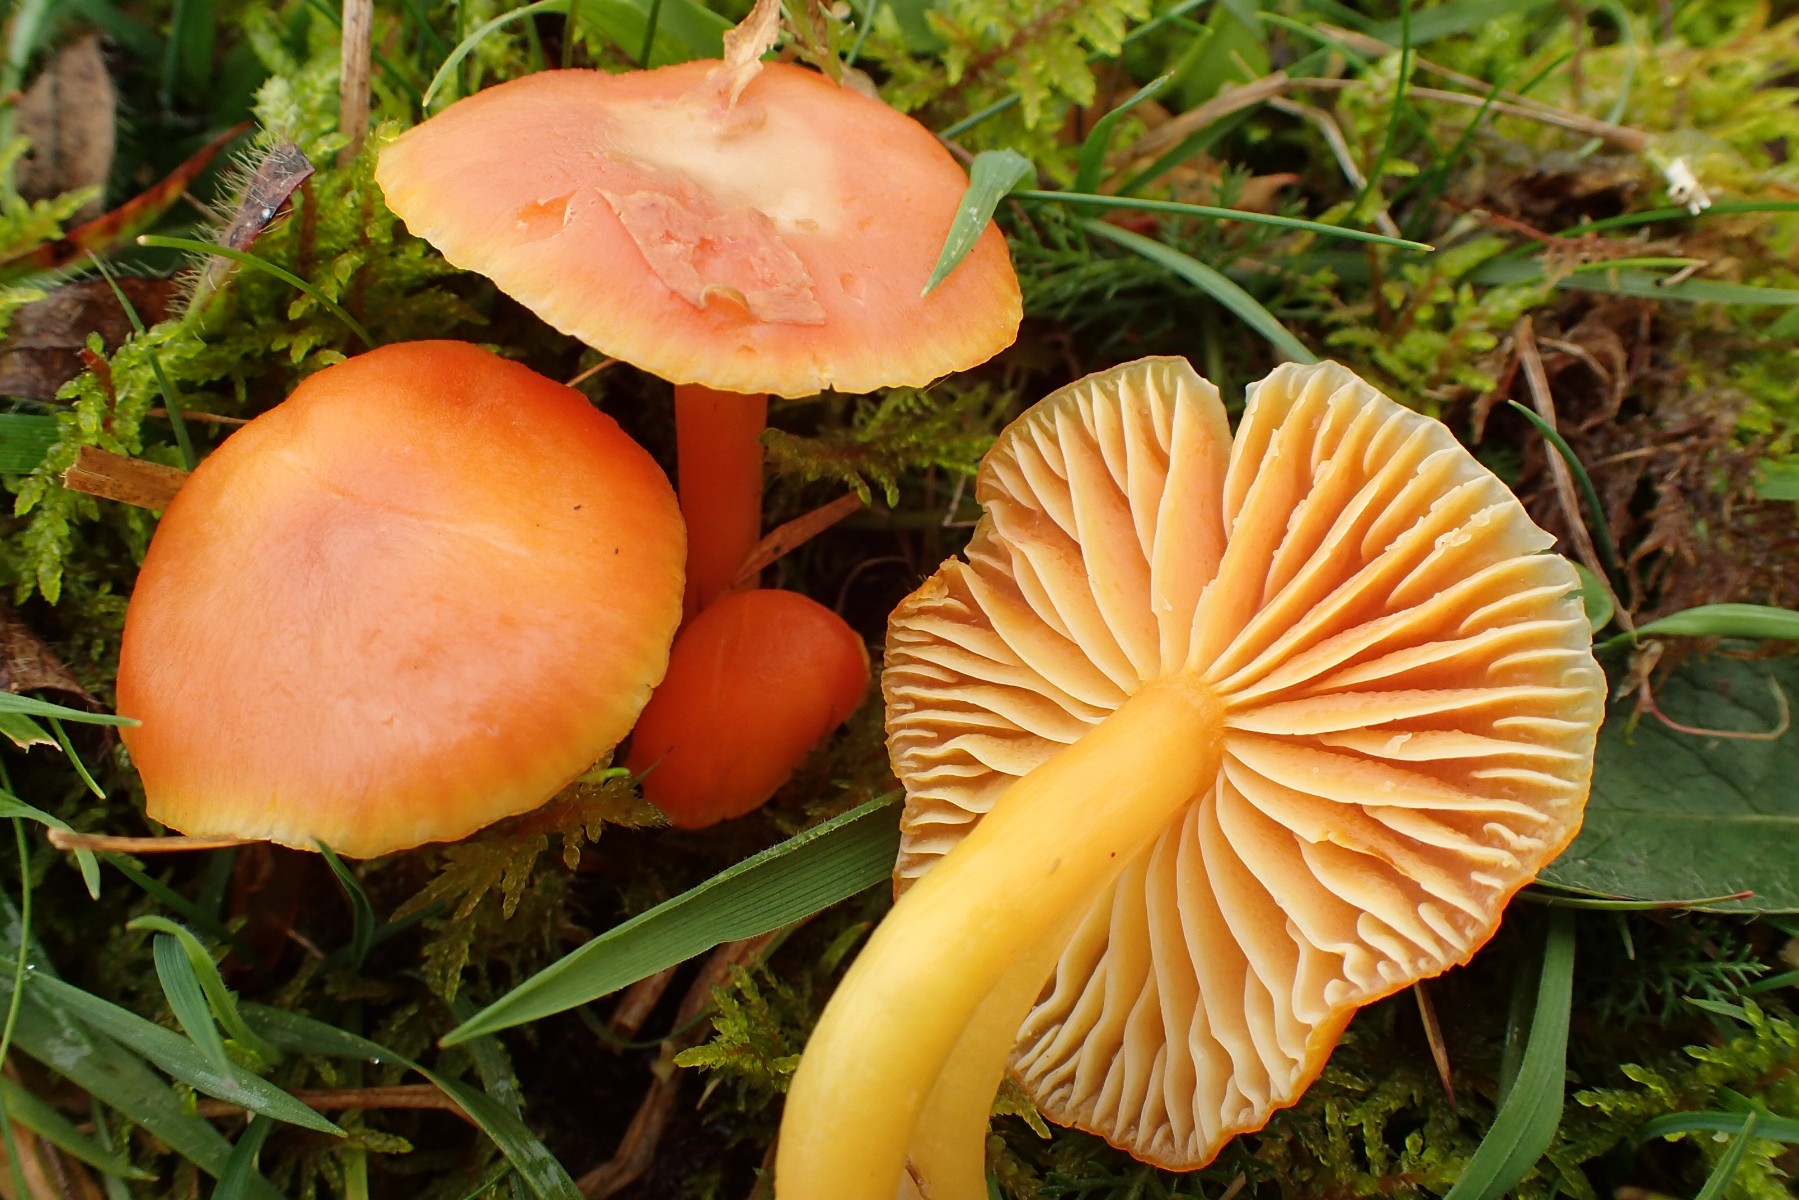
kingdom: Fungi
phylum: Basidiomycota
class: Agaricomycetes
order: Agaricales
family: Hygrophoraceae
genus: Hygrocybe
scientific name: Hygrocybe reidii
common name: honning-vokshat
